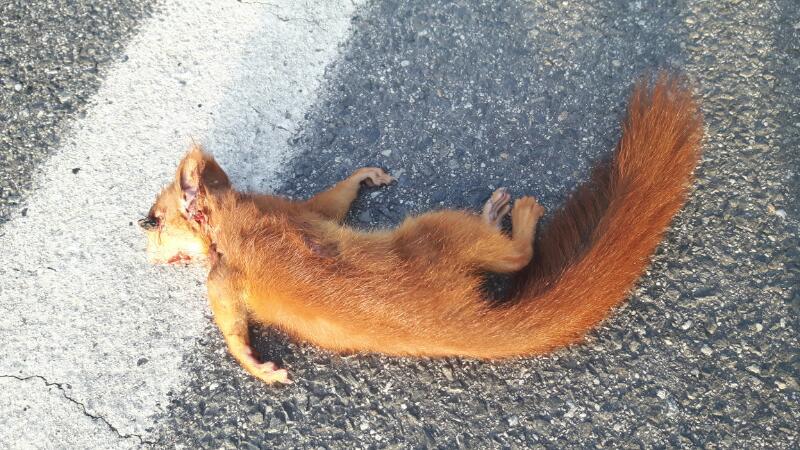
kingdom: Animalia
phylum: Chordata
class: Mammalia
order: Rodentia
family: Sciuridae
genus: Sciurus
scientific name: Sciurus vulgaris
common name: Eurasian red squirrel
